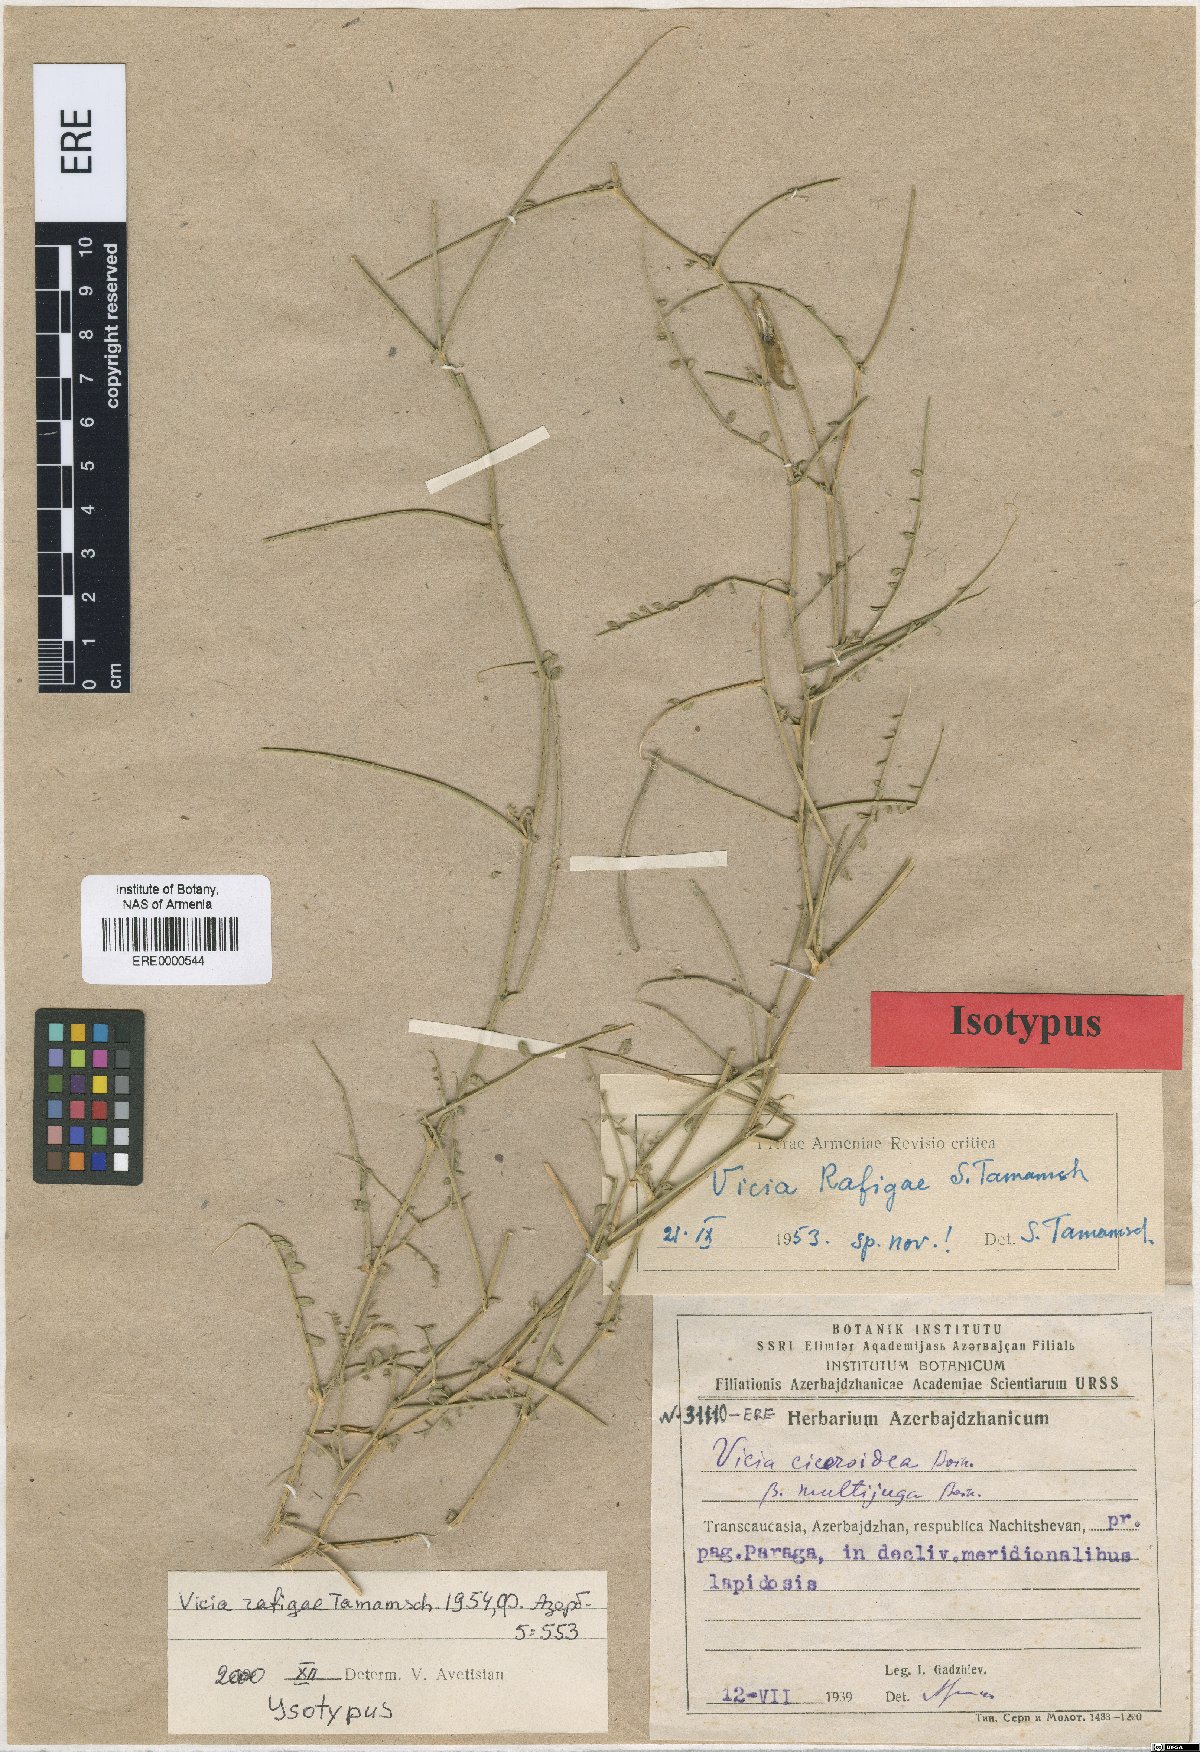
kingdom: Plantae
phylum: Tracheophyta
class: Magnoliopsida
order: Fabales
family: Fabaceae
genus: Vicia
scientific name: Vicia ciceroidea
